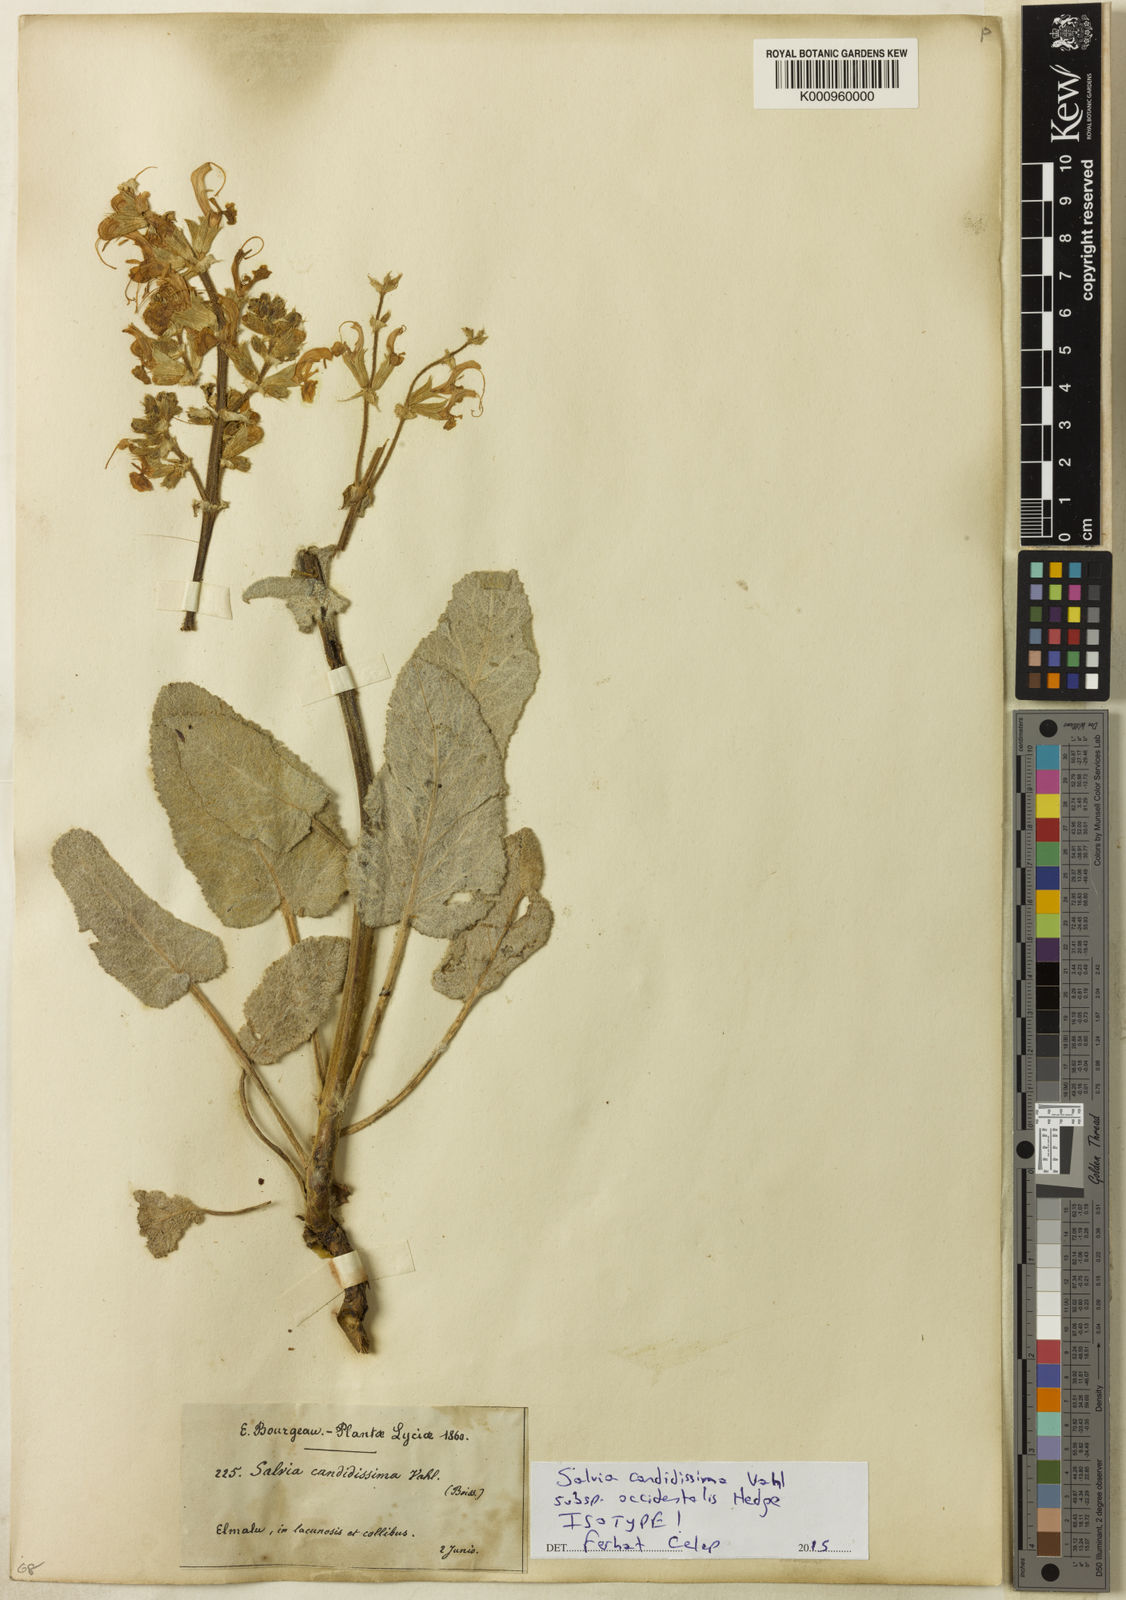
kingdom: Plantae
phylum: Tracheophyta
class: Magnoliopsida
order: Lamiales
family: Lamiaceae
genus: Salvia
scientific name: Salvia candidissima
